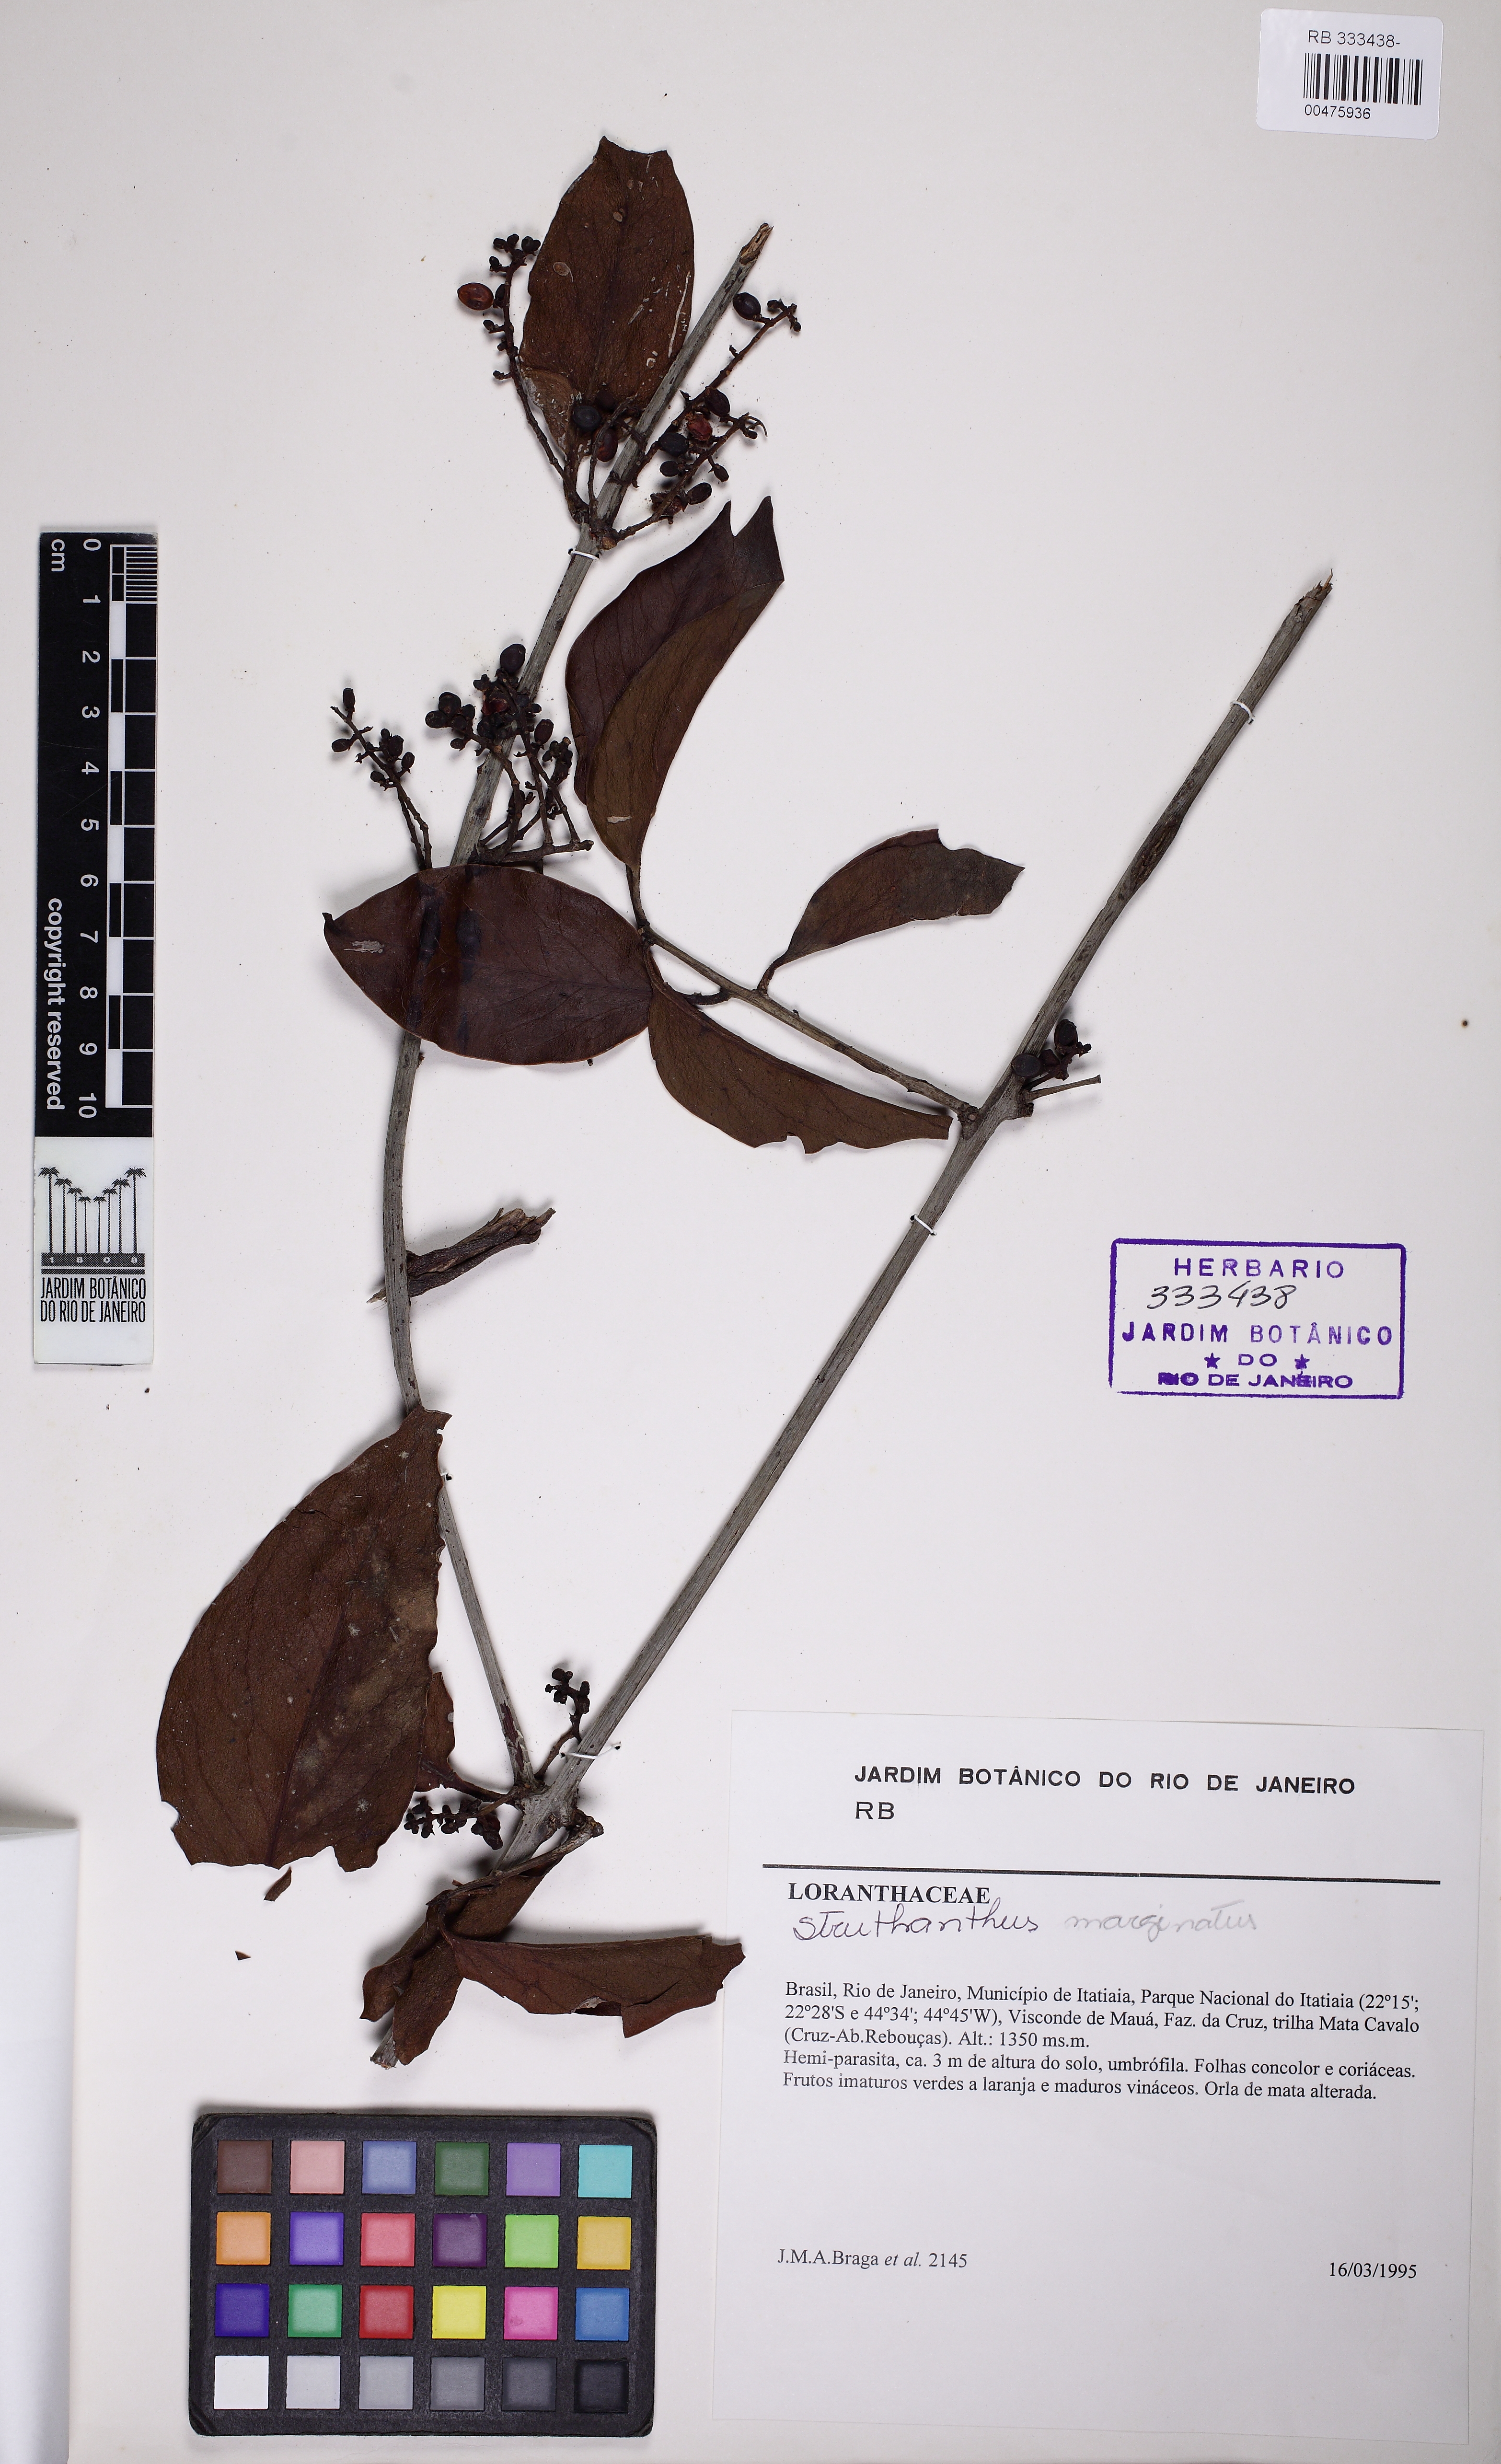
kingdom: Plantae
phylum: Tracheophyta
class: Magnoliopsida
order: Santalales
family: Loranthaceae
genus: Struthanthus
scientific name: Struthanthus marginatus
